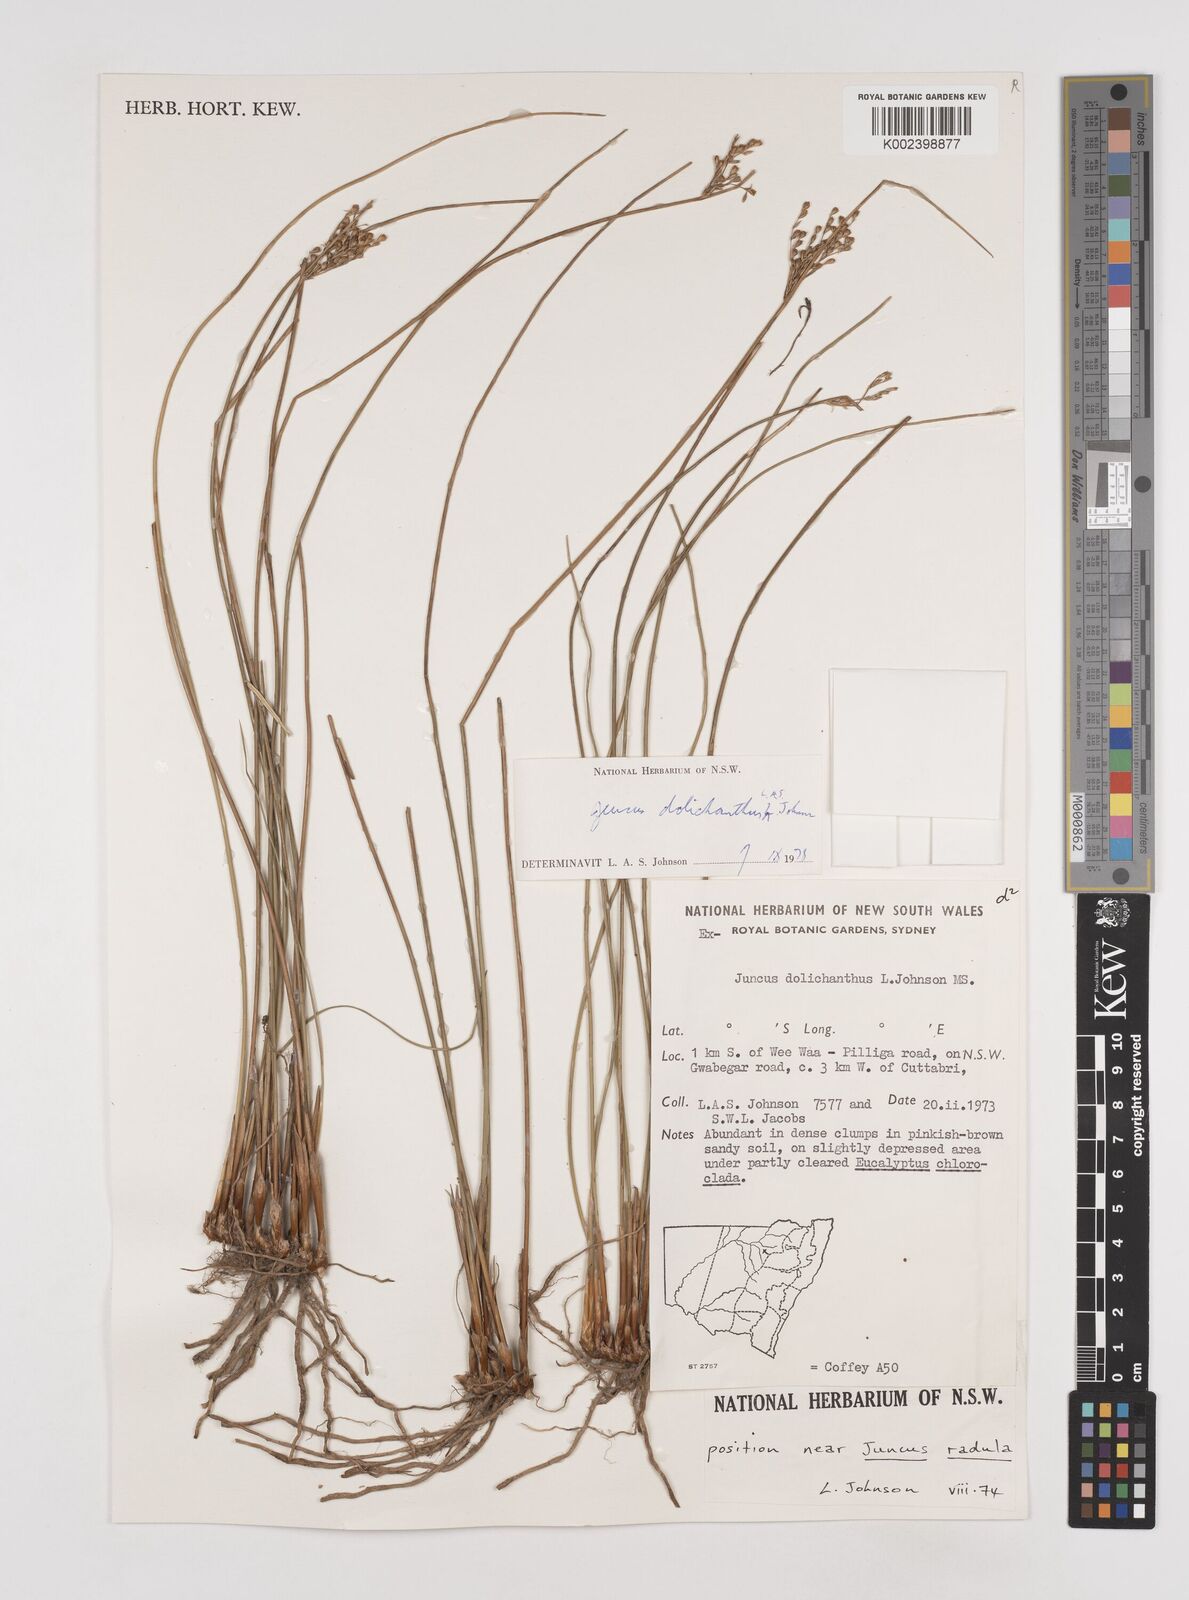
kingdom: Plantae
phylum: Tracheophyta
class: Liliopsida
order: Poales
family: Juncaceae
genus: Juncus
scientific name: Juncus dolichanthus
